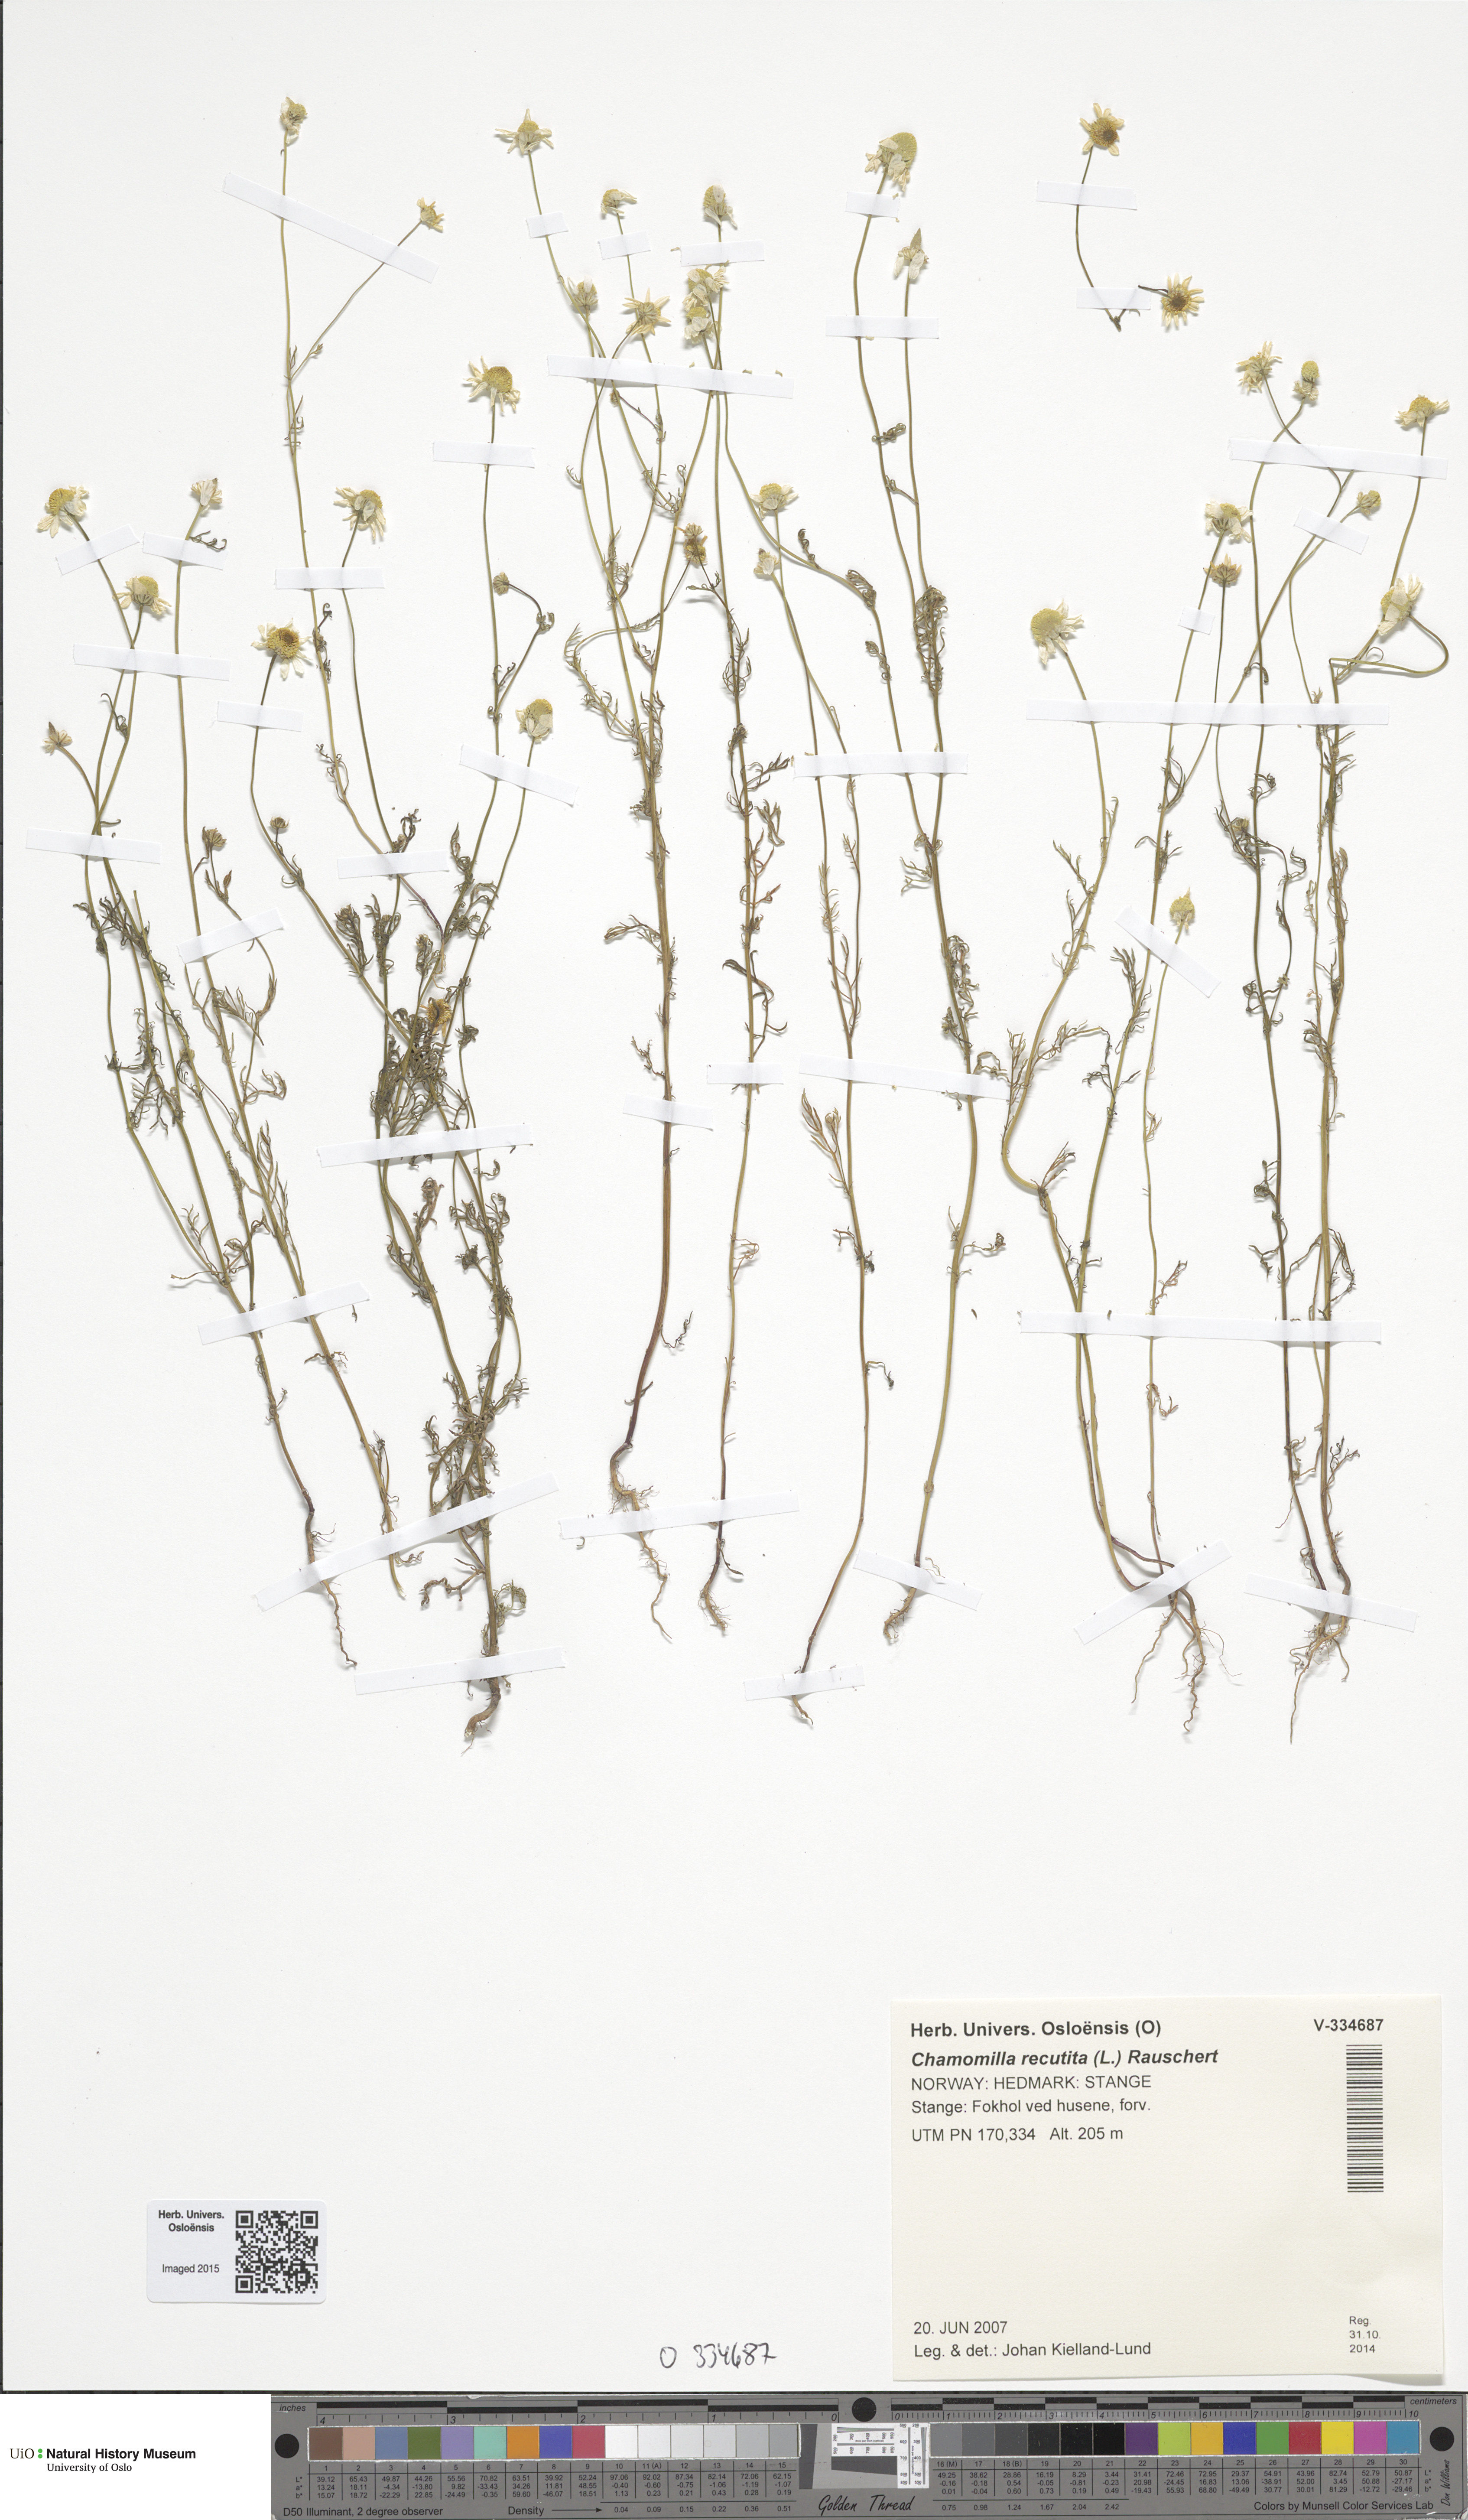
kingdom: Plantae
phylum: Tracheophyta
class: Magnoliopsida
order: Asterales
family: Asteraceae
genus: Matricaria
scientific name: Matricaria chamomilla
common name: Scented mayweed
